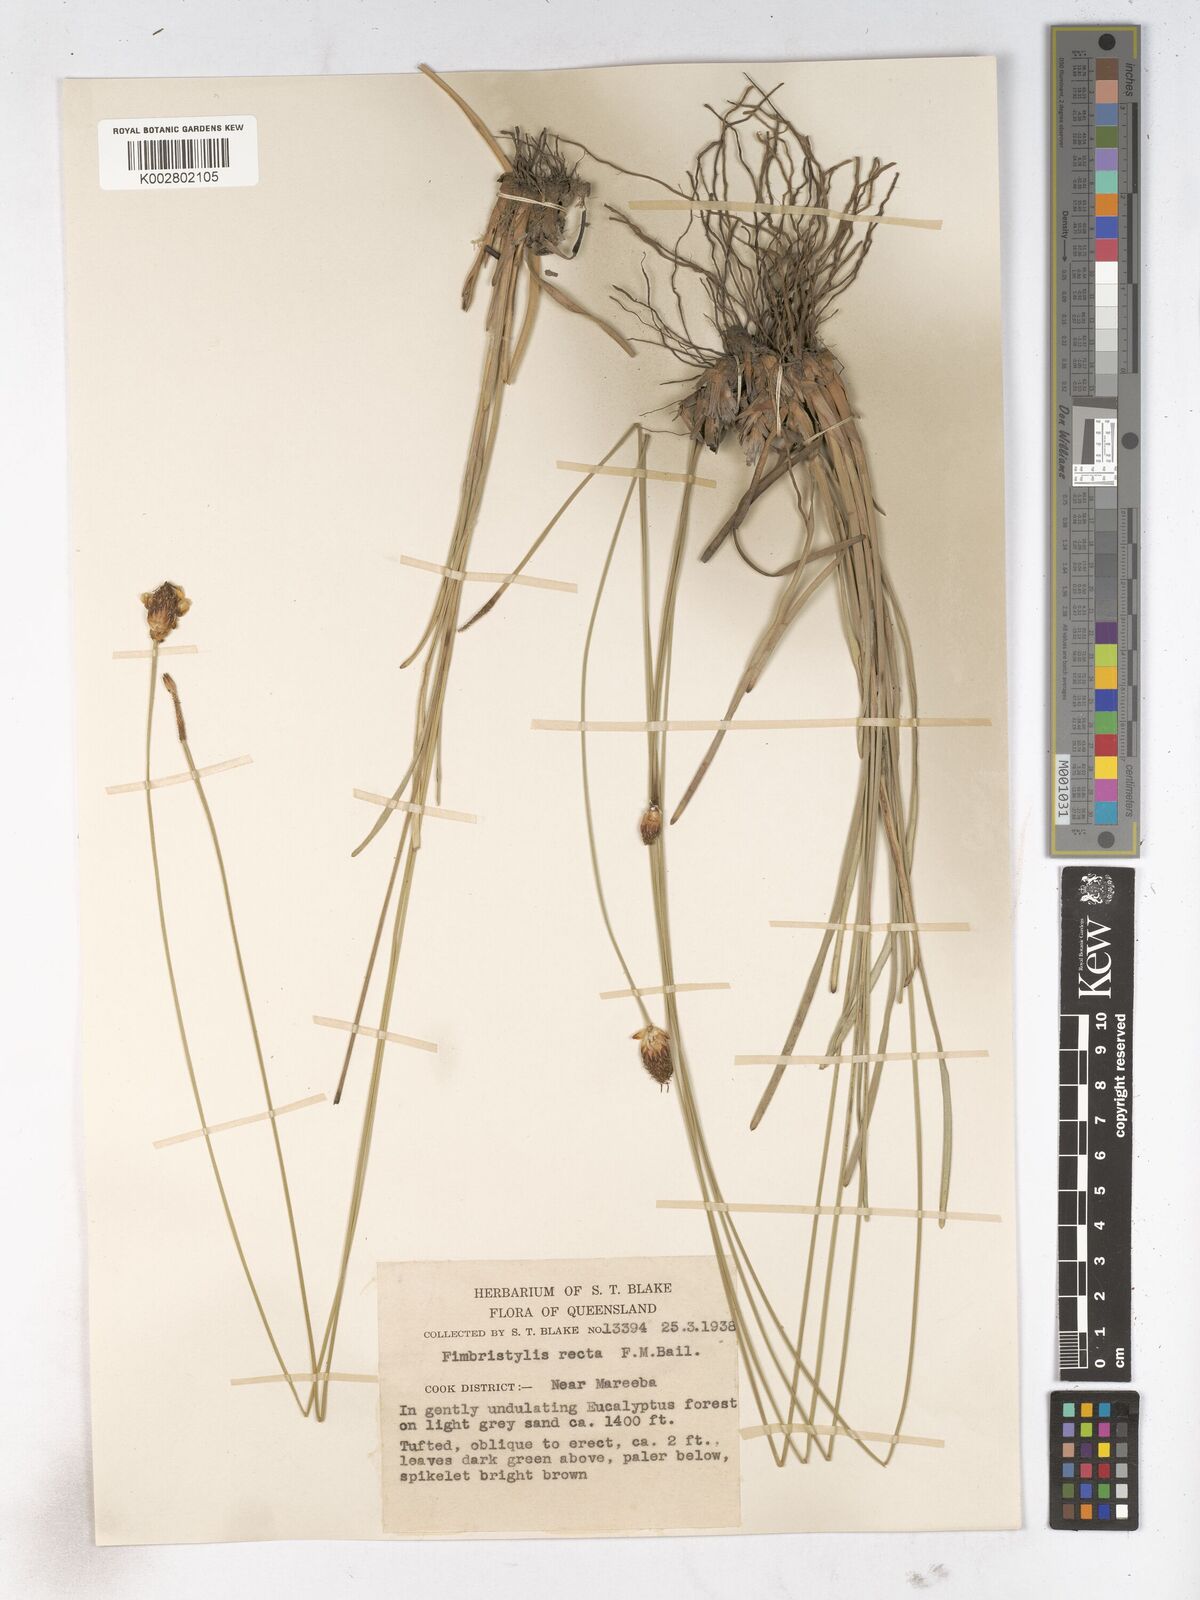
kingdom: Plantae
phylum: Tracheophyta
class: Liliopsida
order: Poales
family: Cyperaceae
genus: Fimbristylis
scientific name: Fimbristylis recta
